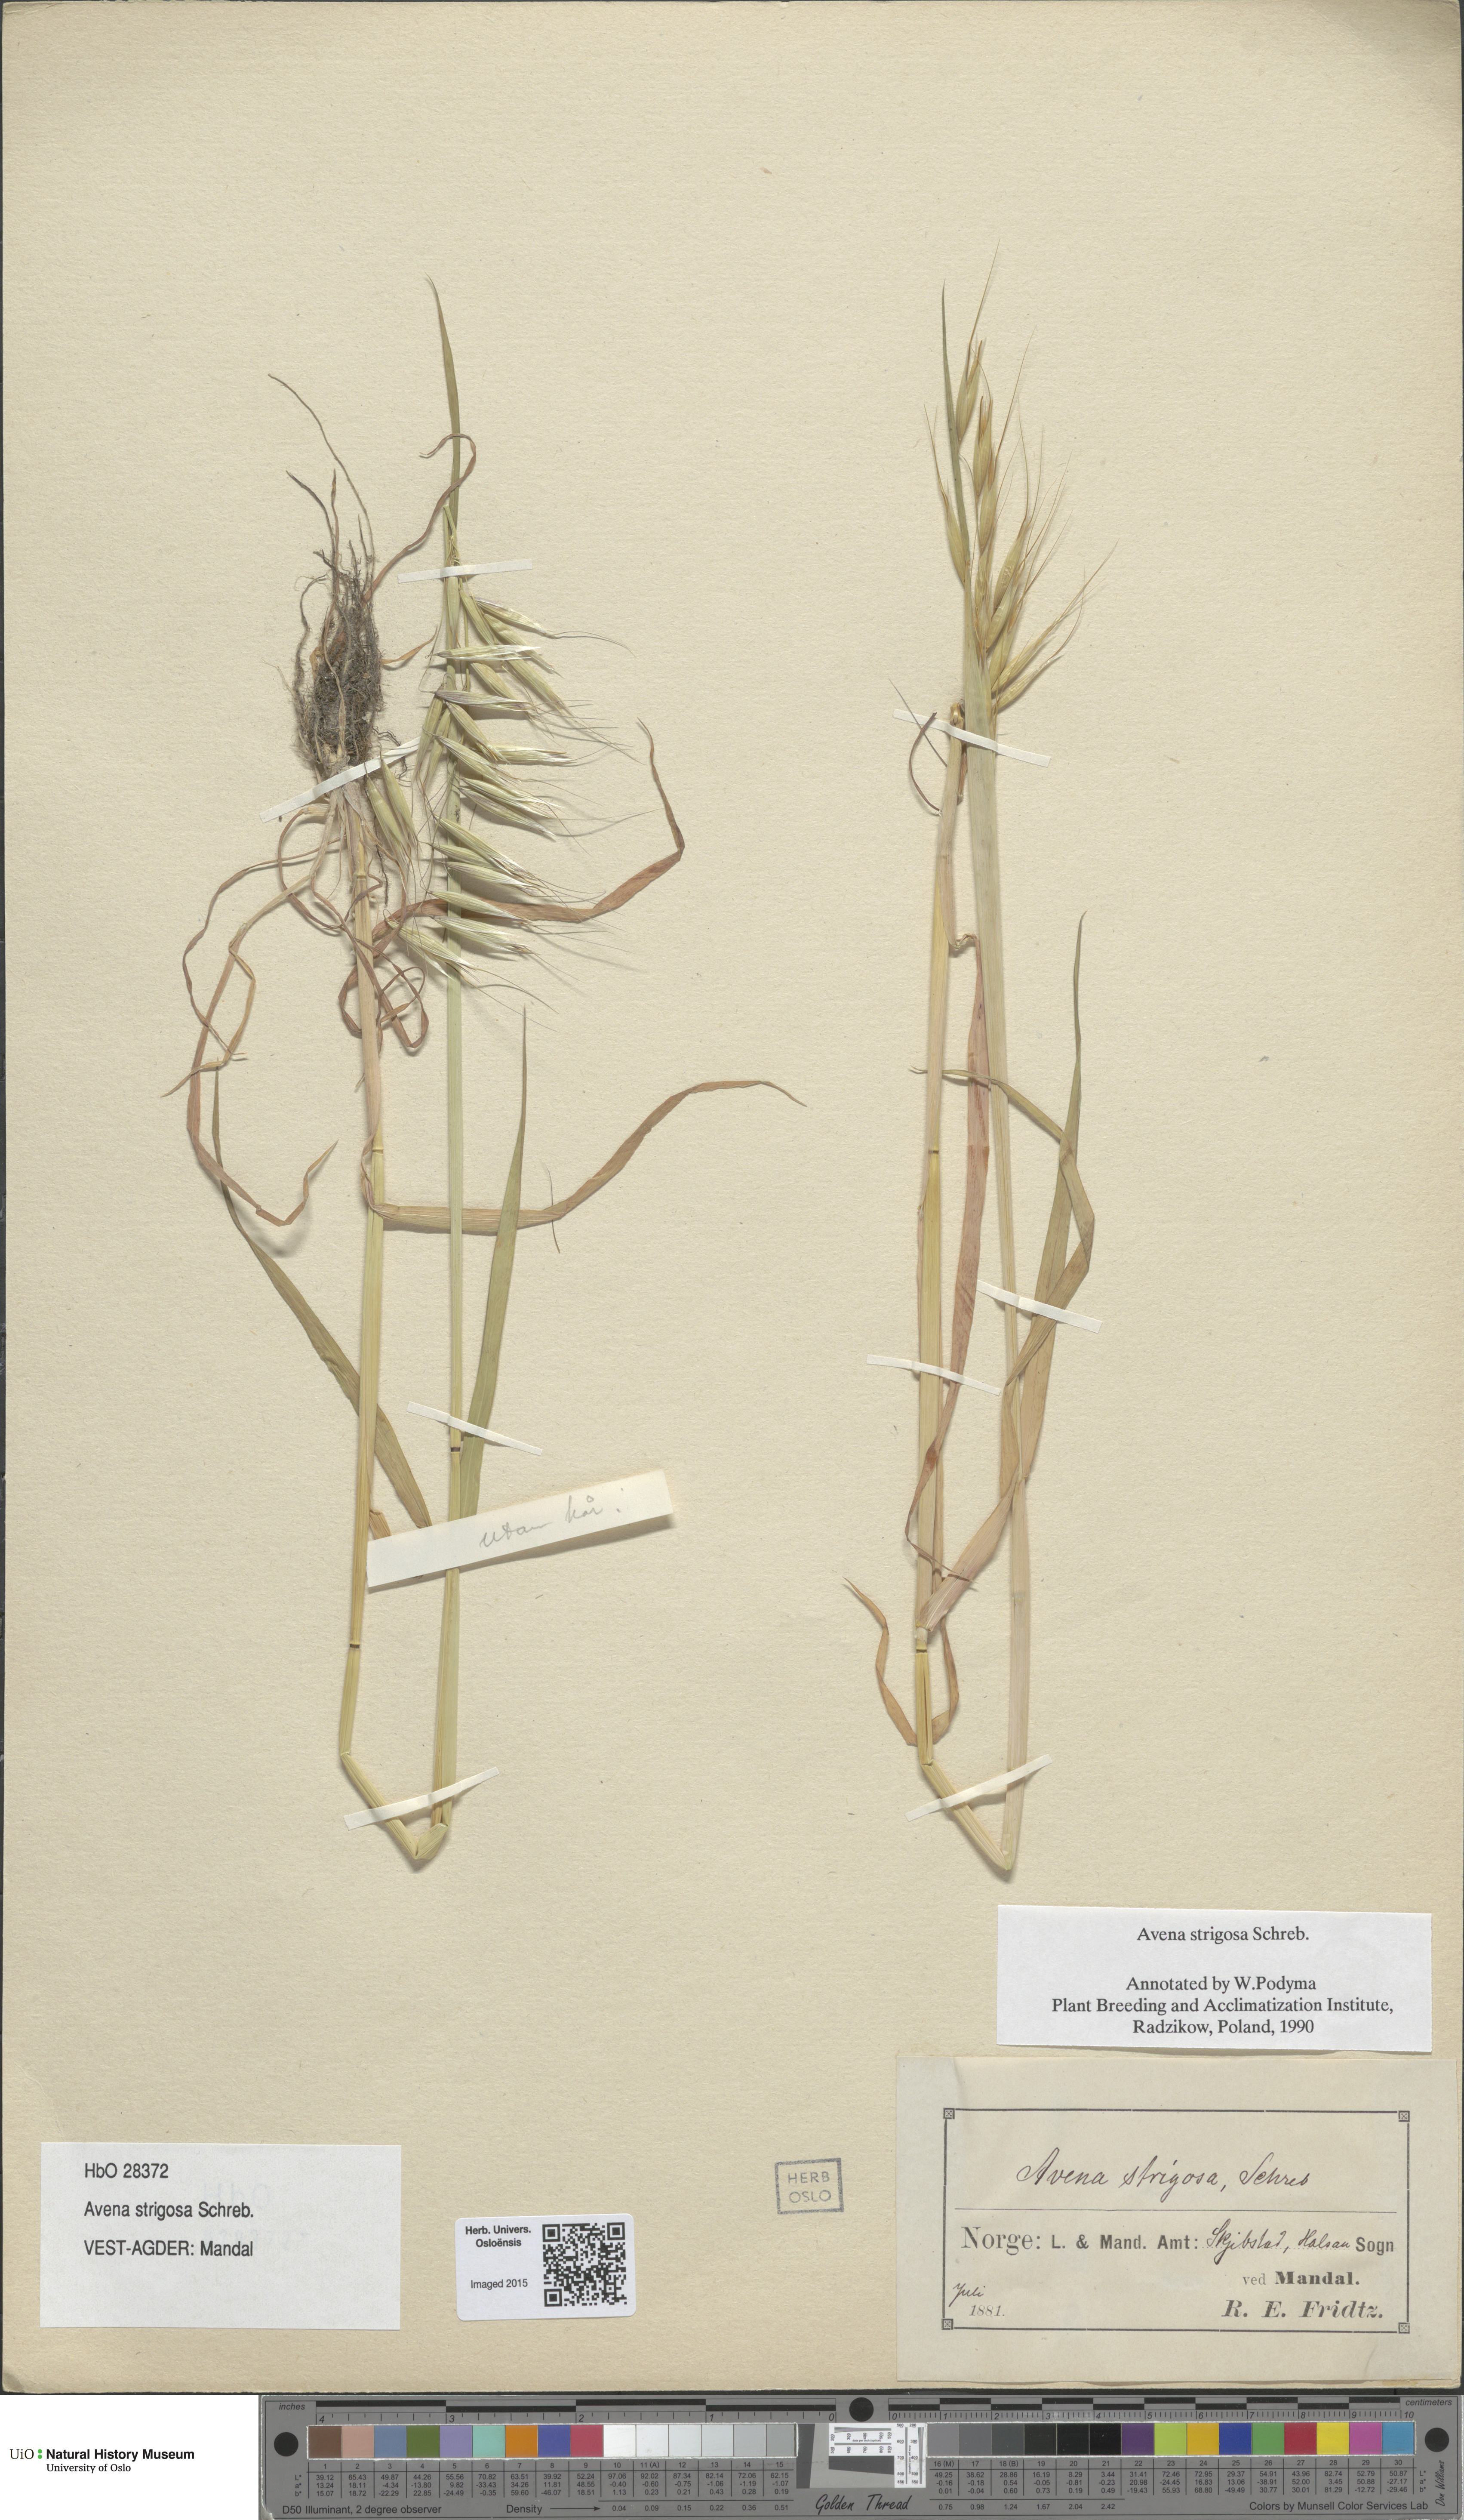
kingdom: Plantae
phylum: Tracheophyta
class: Liliopsida
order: Poales
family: Poaceae
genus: Avena
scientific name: Avena strigosa
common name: Bristle oat
